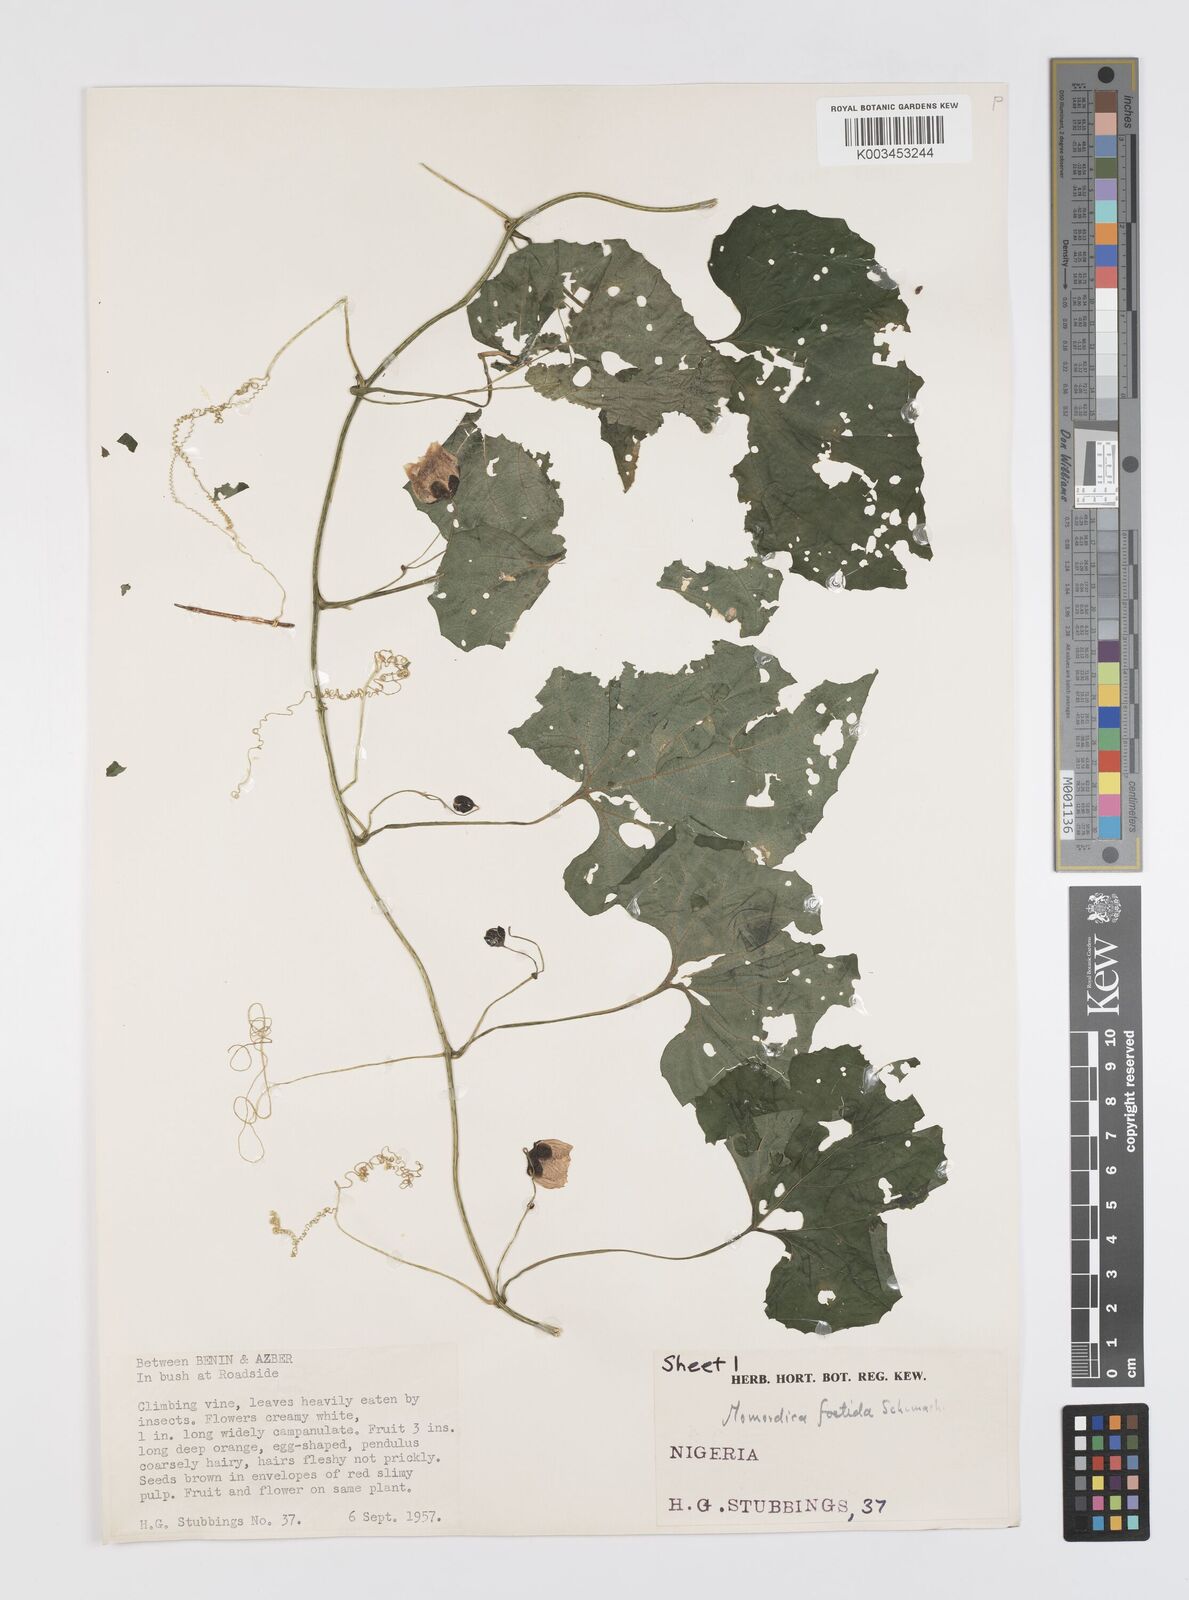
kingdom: Plantae
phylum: Tracheophyta
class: Magnoliopsida
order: Cucurbitales
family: Cucurbitaceae
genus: Momordica
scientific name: Momordica foetida
